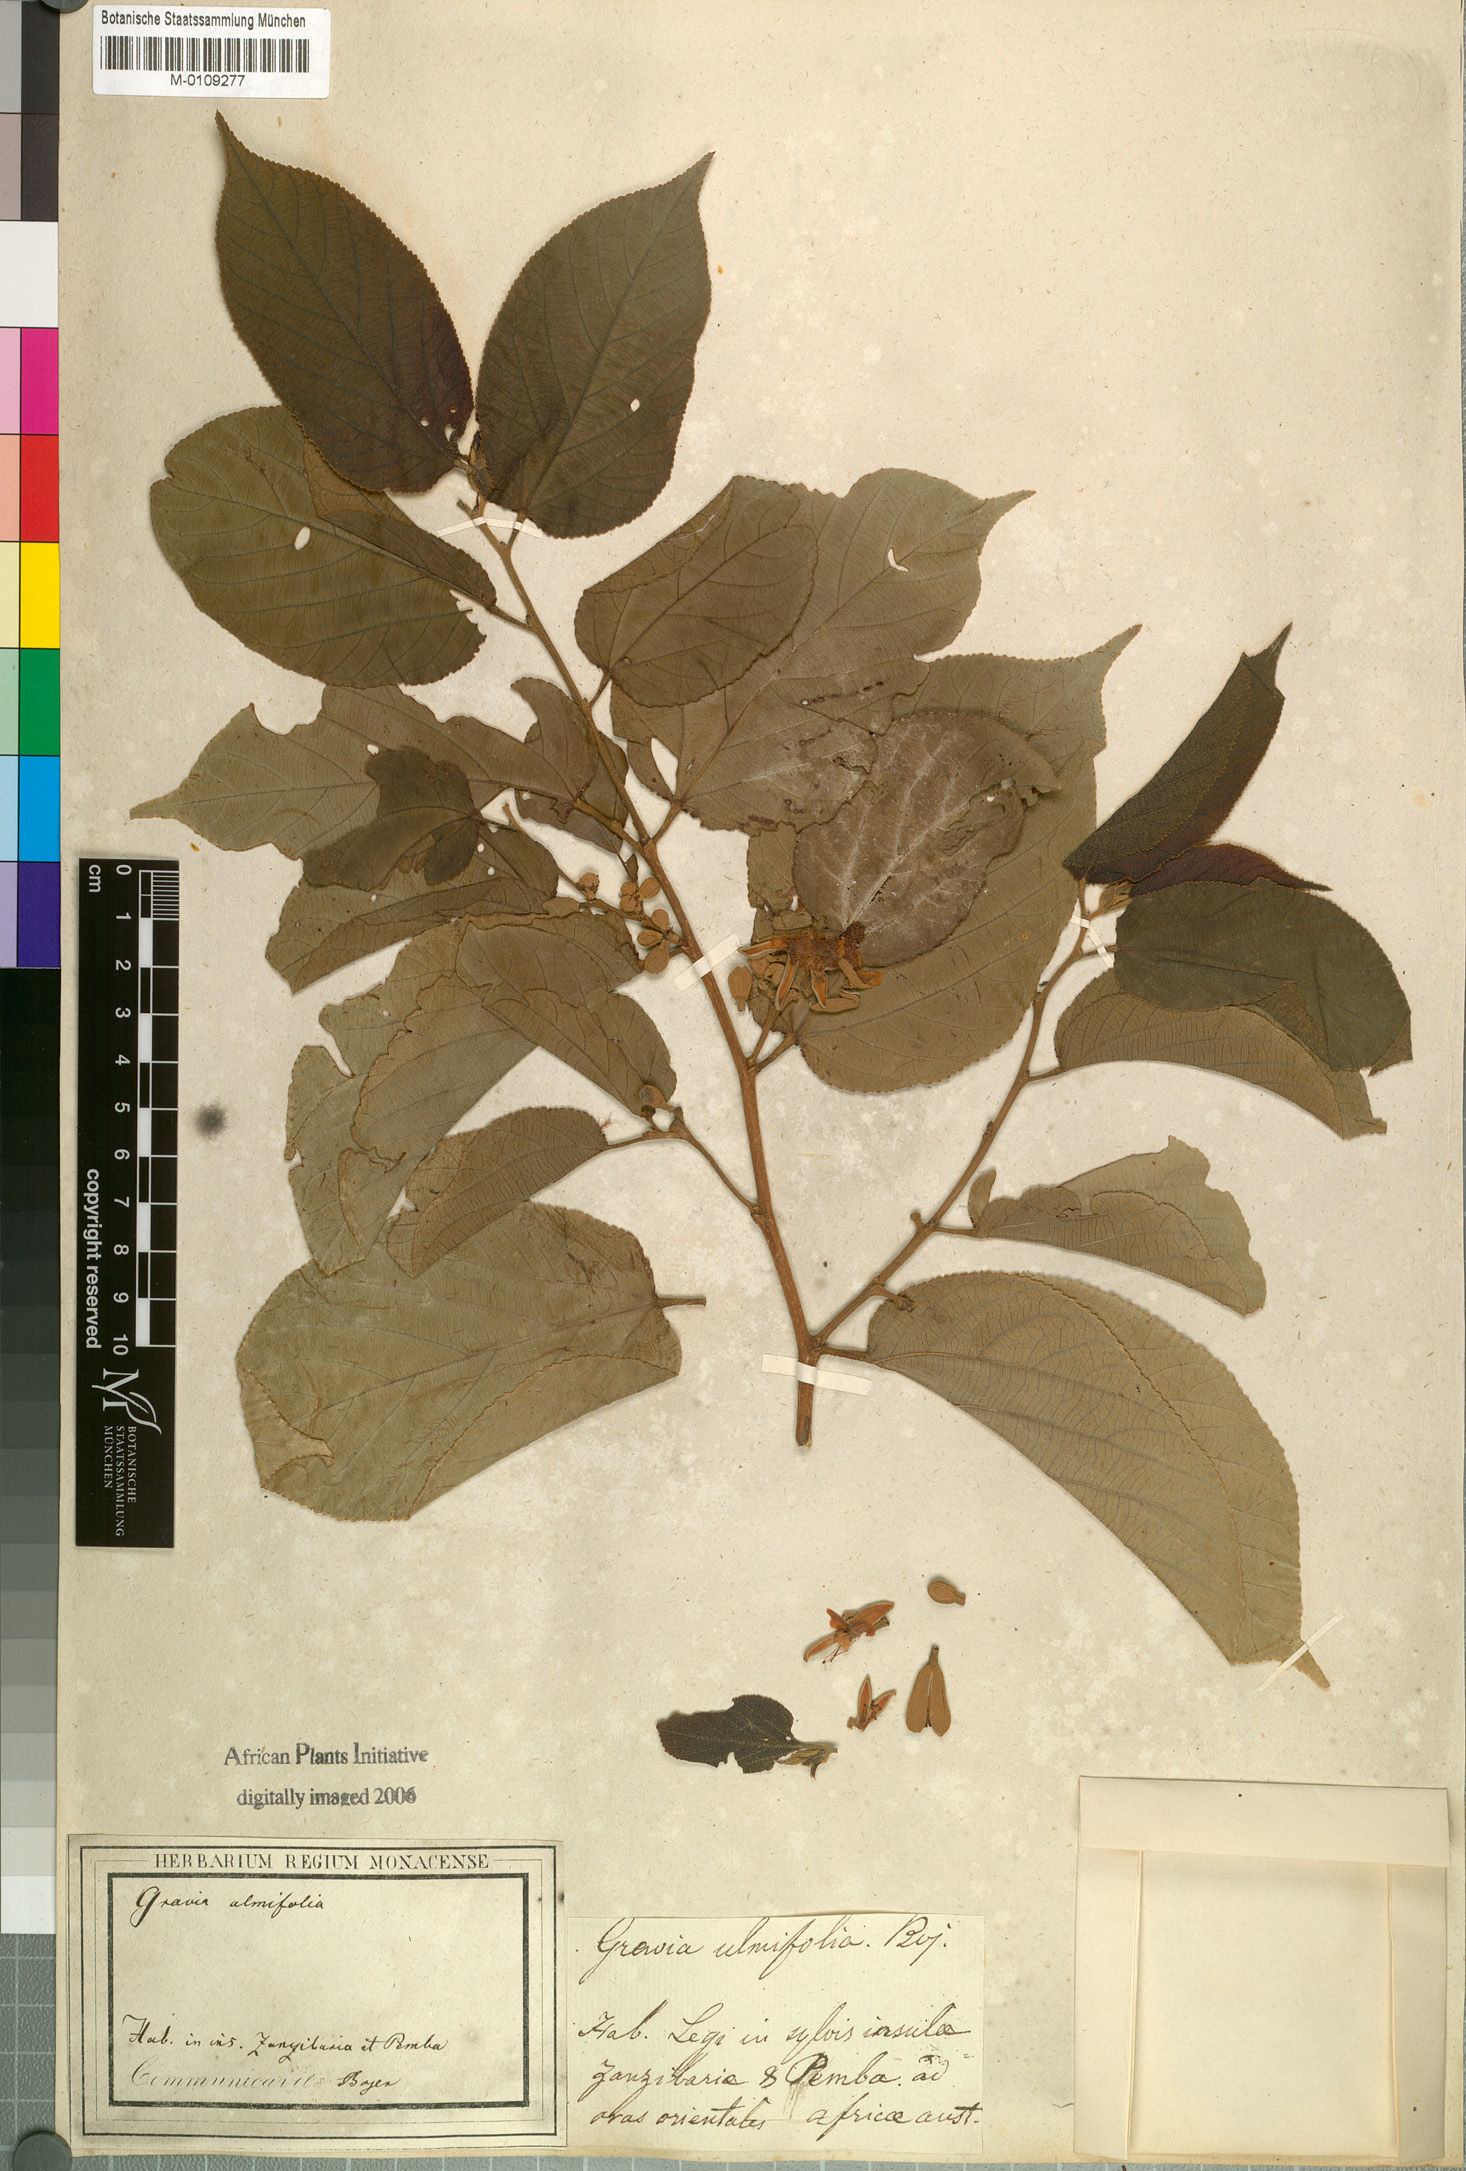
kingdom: Plantae
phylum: Tracheophyta
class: Magnoliopsida
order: Malvales
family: Malvaceae
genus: Grewia
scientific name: Grewia glandulosa
